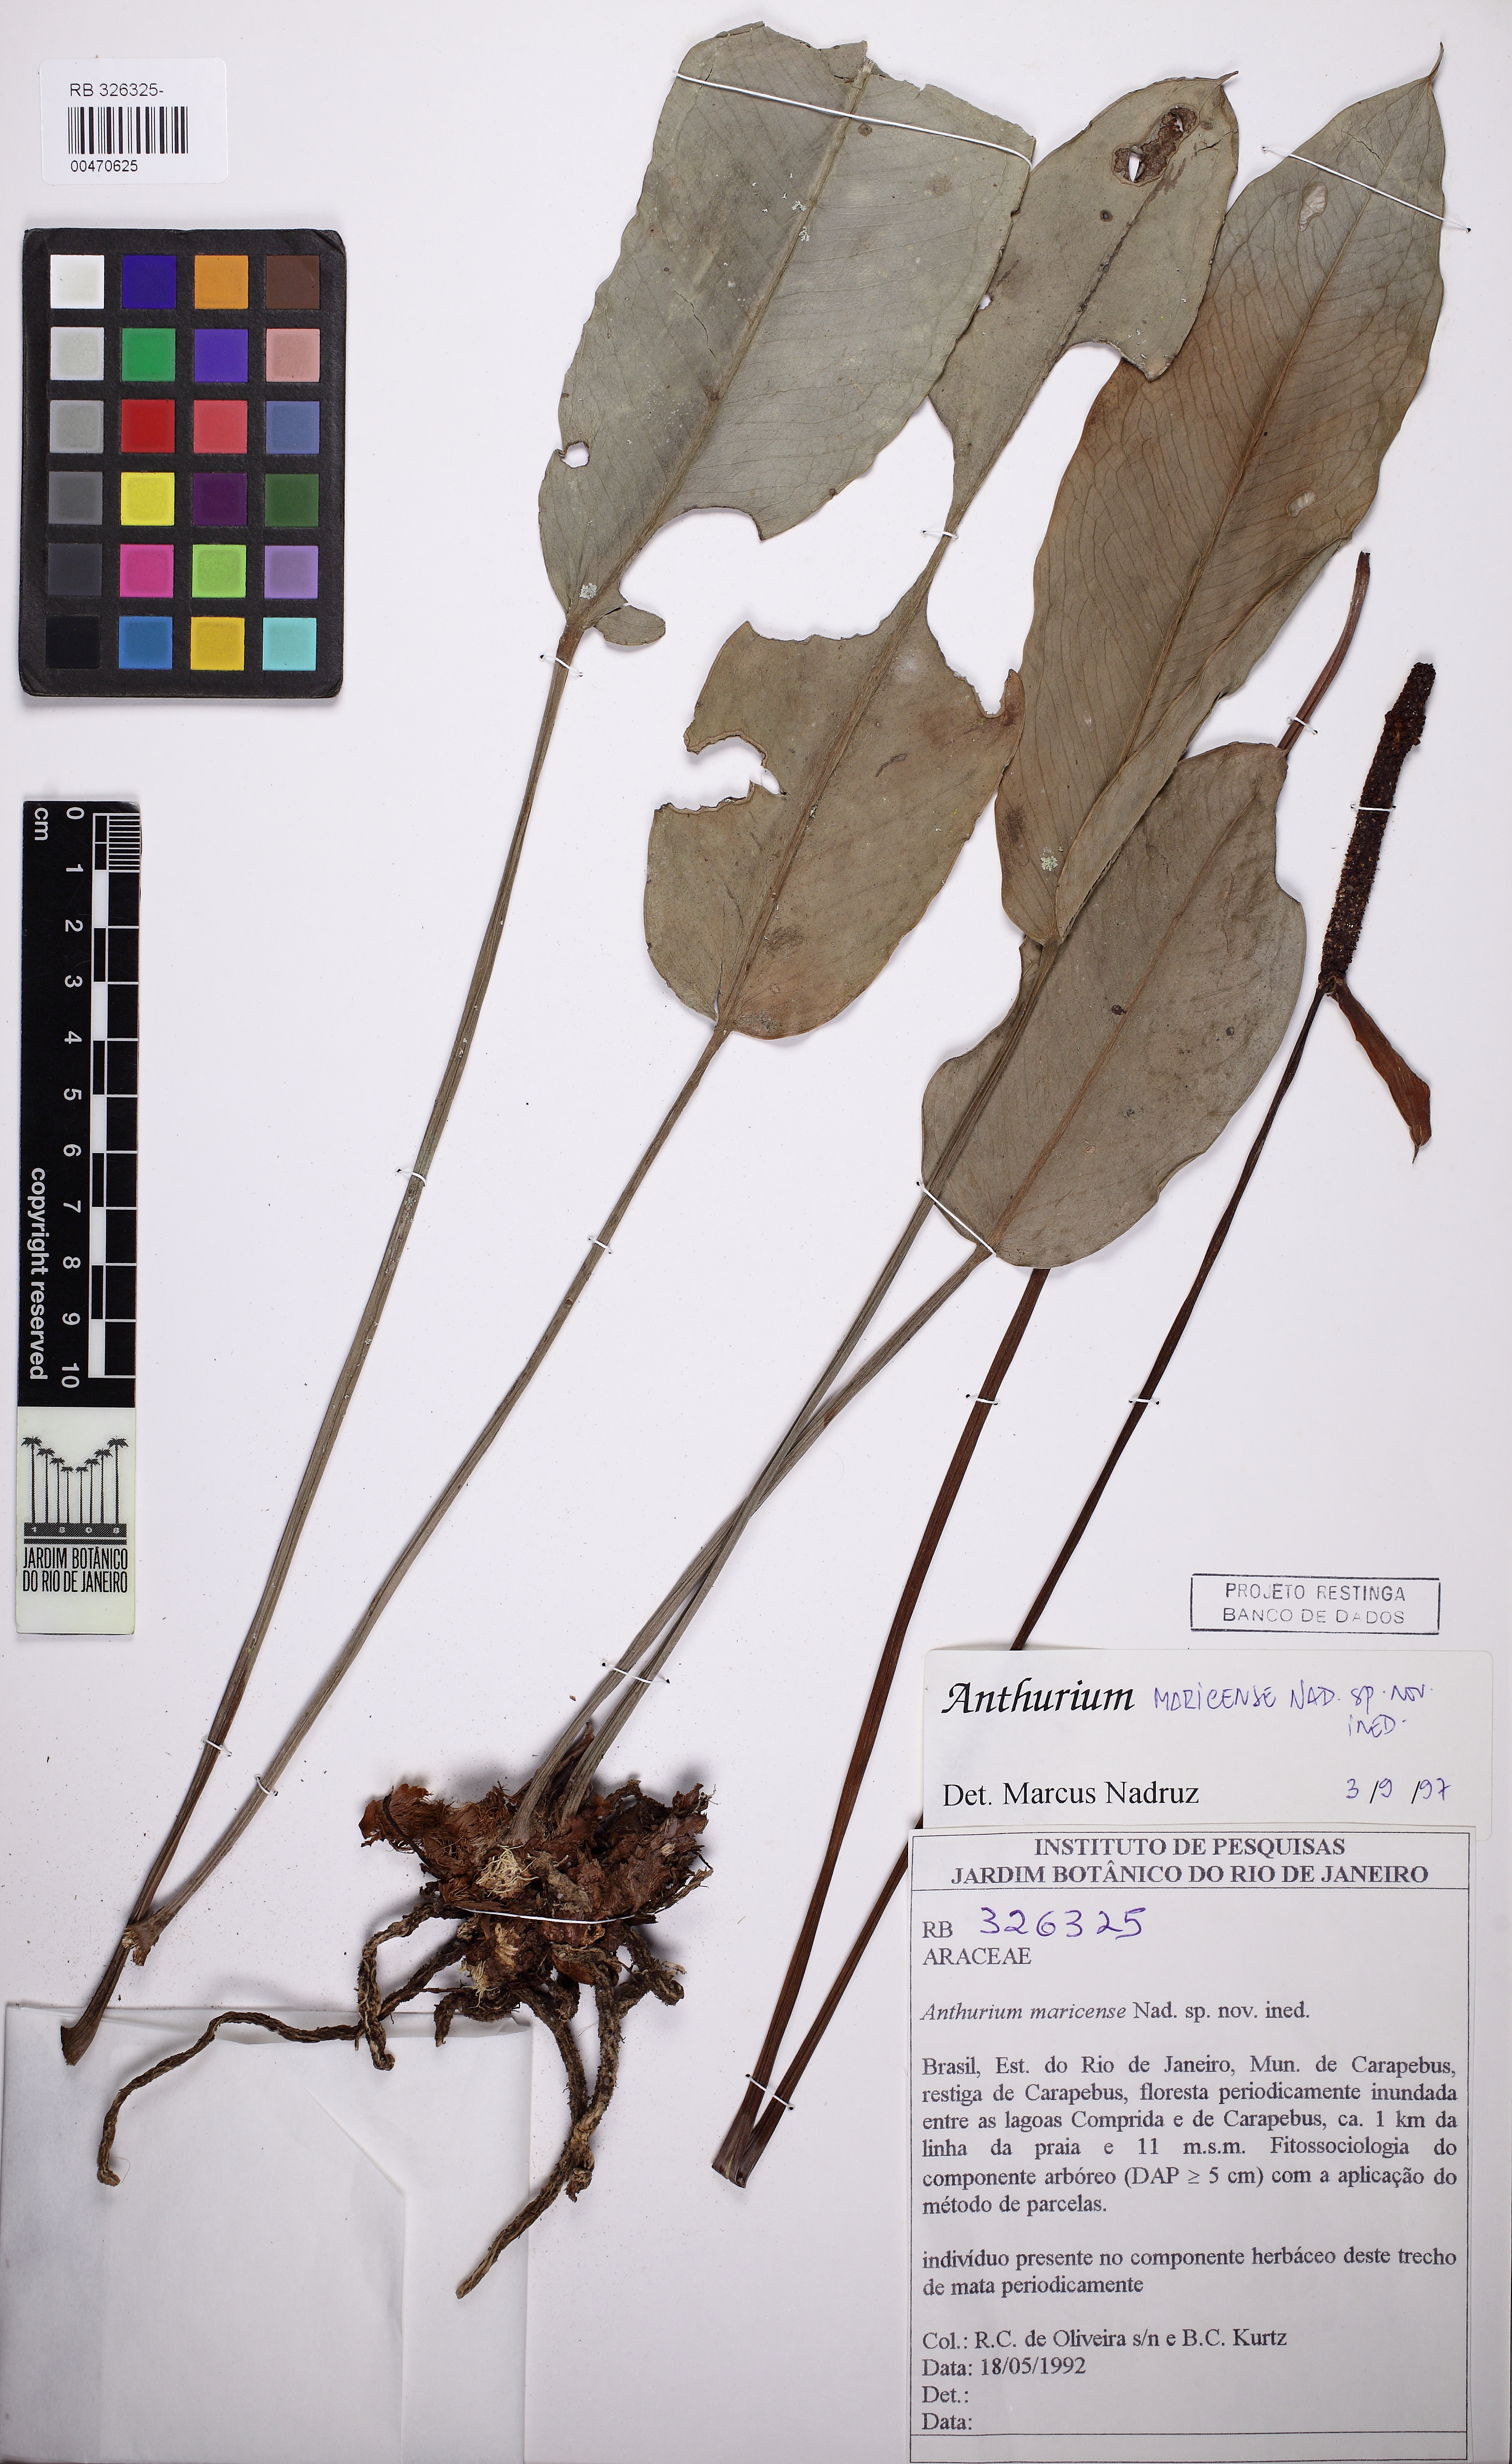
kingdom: Plantae
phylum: Tracheophyta
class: Liliopsida
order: Alismatales
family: Araceae
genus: Anthurium
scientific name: Anthurium maricense
